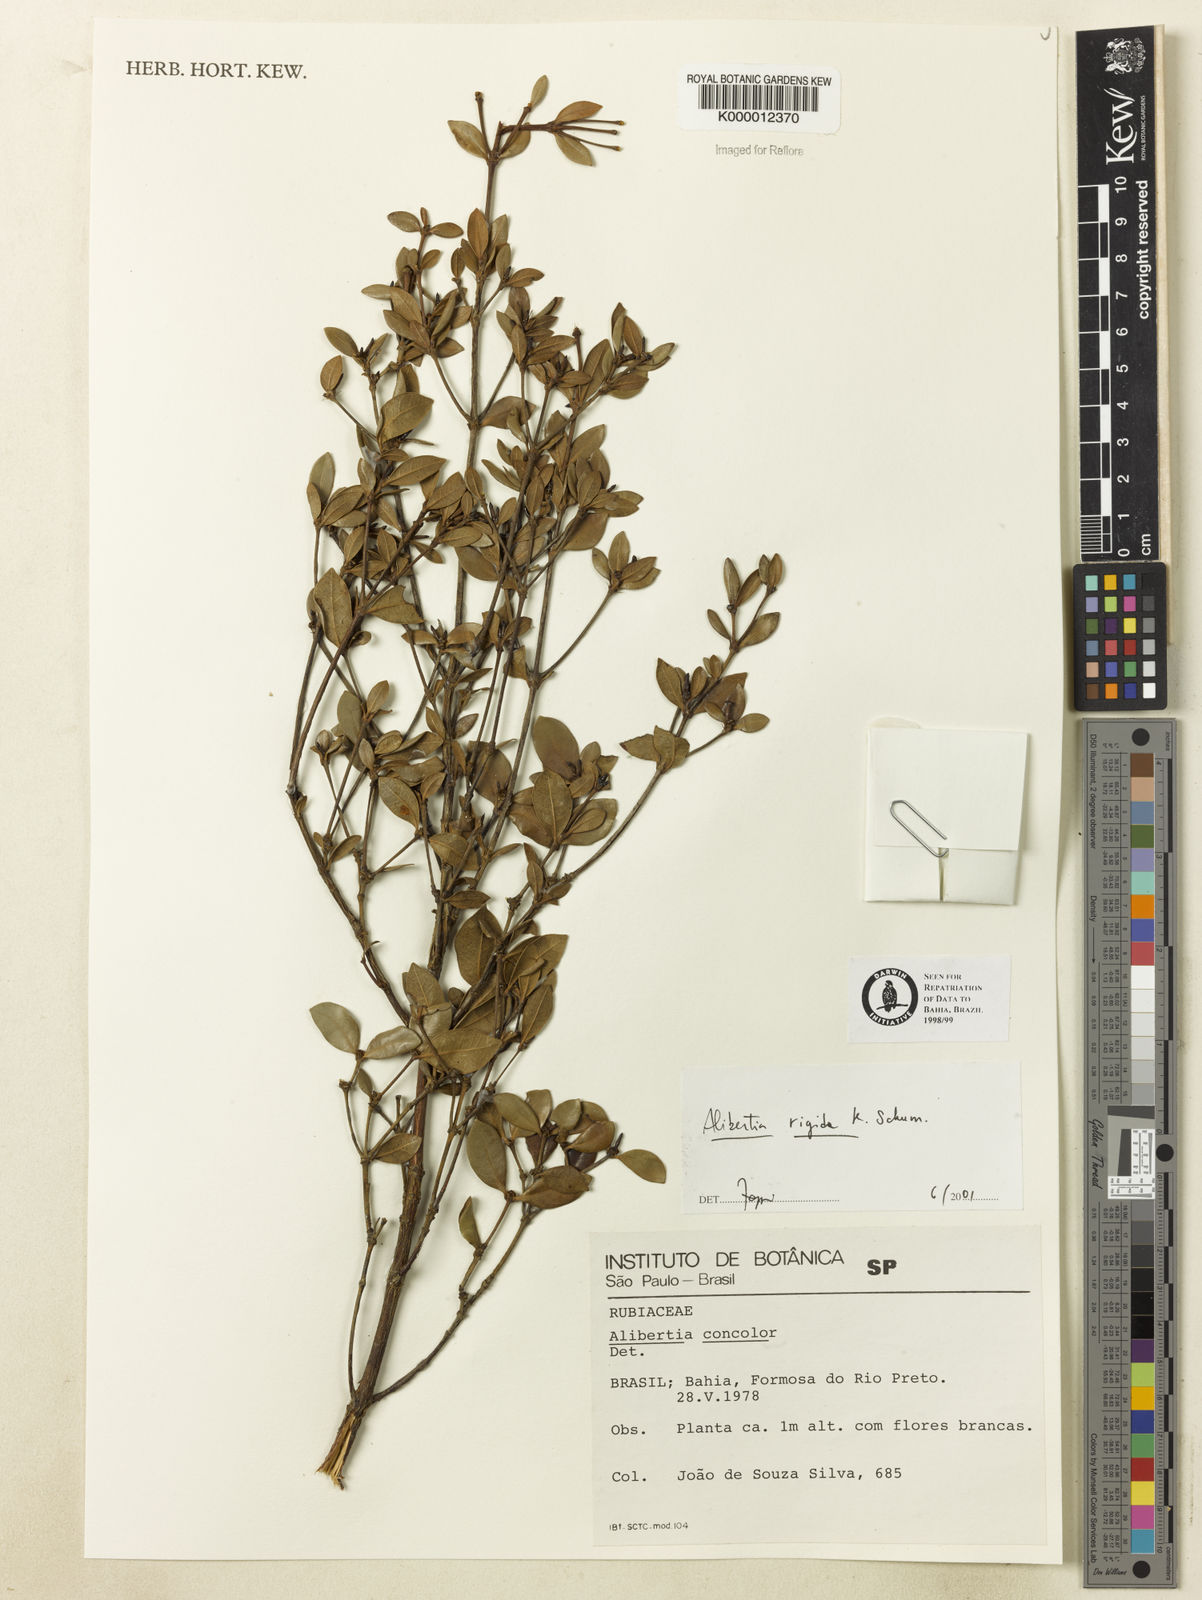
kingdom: Plantae
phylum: Tracheophyta
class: Magnoliopsida
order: Gentianales
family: Rubiaceae
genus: Cordiera
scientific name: Cordiera rigida
